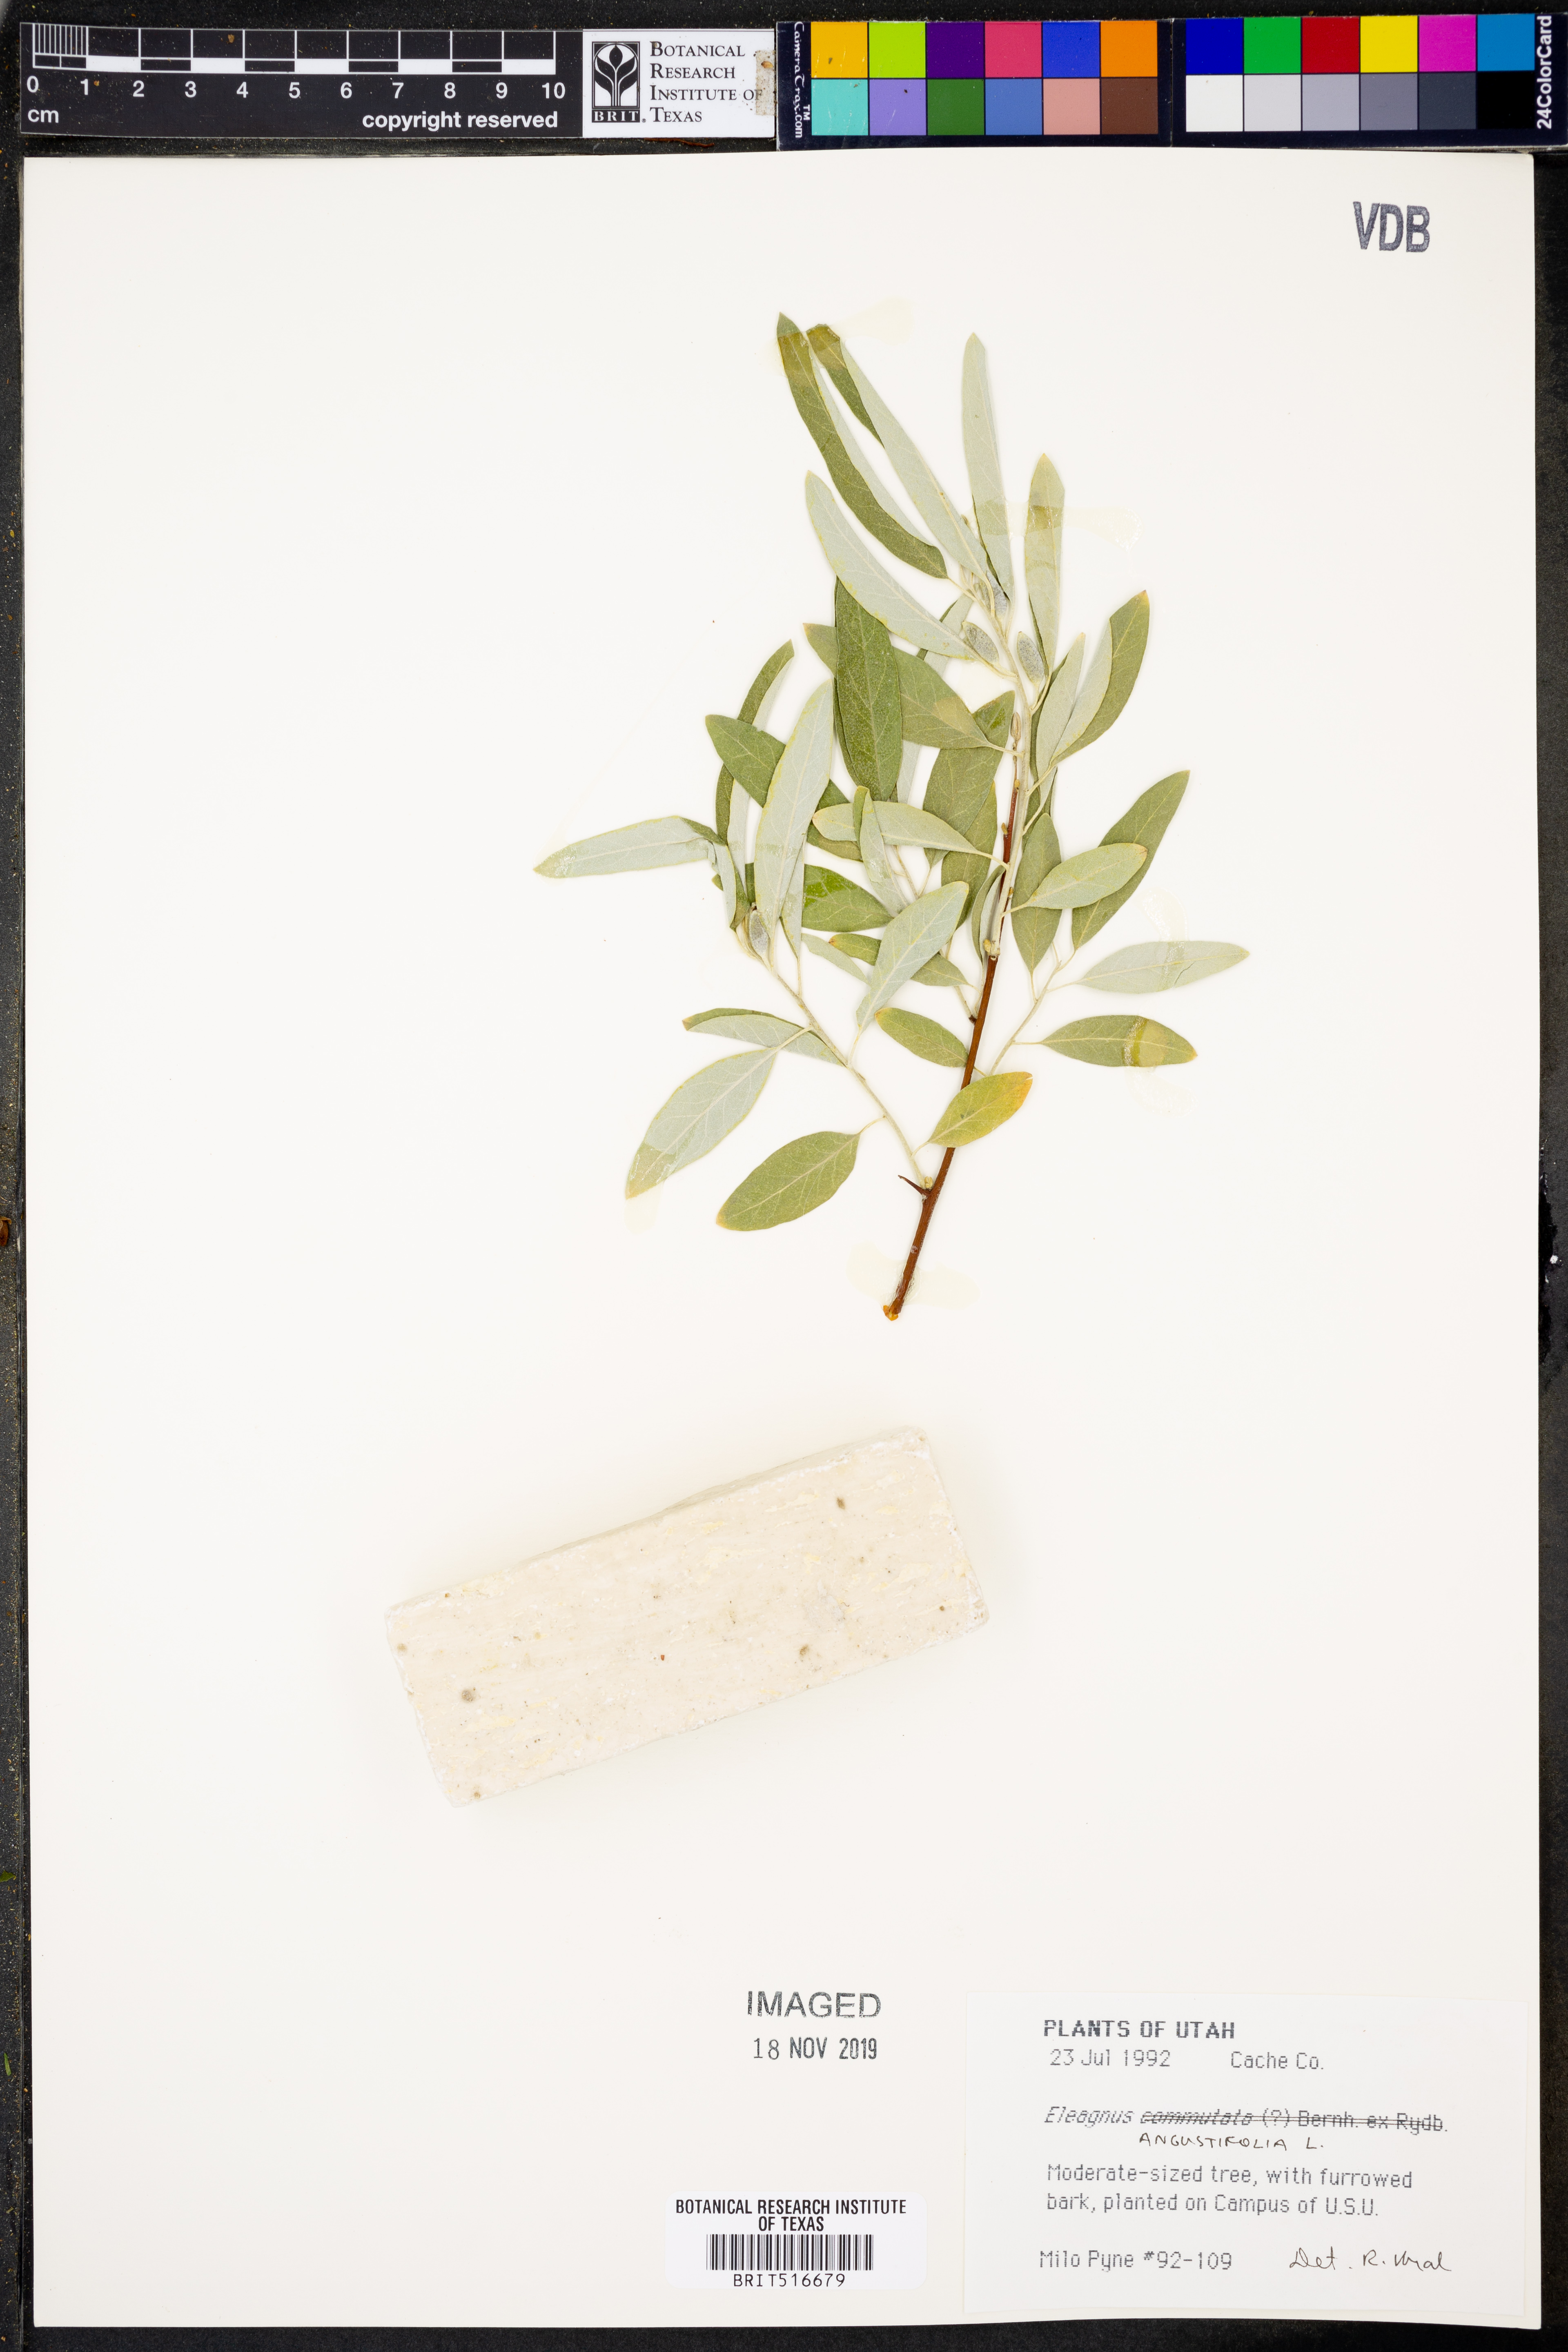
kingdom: Plantae
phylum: Tracheophyta
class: Magnoliopsida
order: Rosales
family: Elaeagnaceae
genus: Elaeagnus
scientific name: Elaeagnus angustifolia
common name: Russian olive
